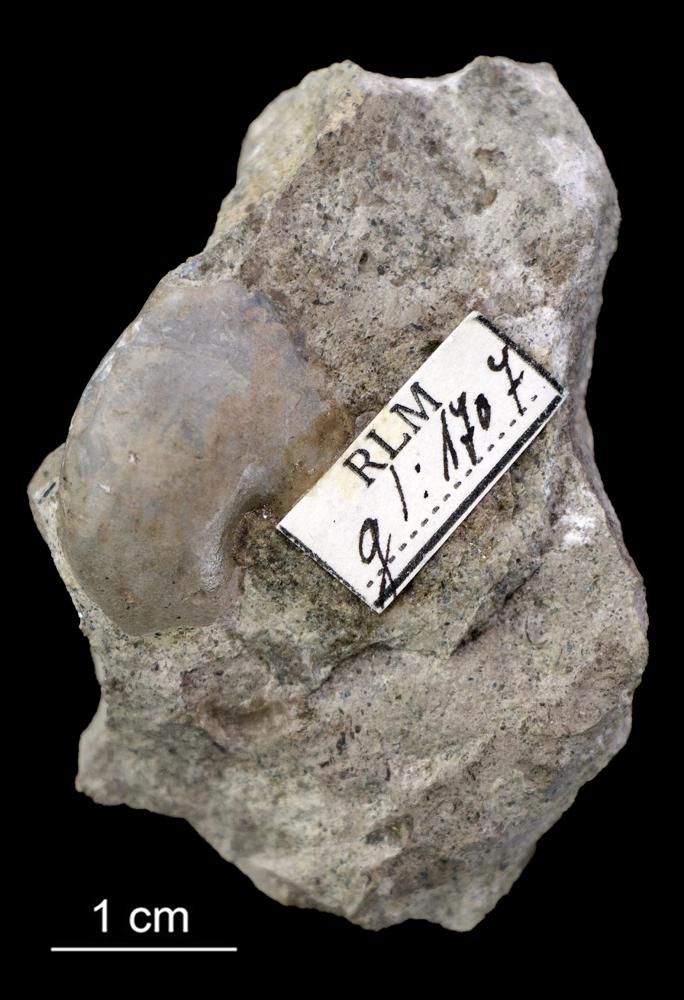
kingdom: Animalia
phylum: Mollusca
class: Gastropoda
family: Sinuitidae
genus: Sinuites
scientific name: Sinuites
